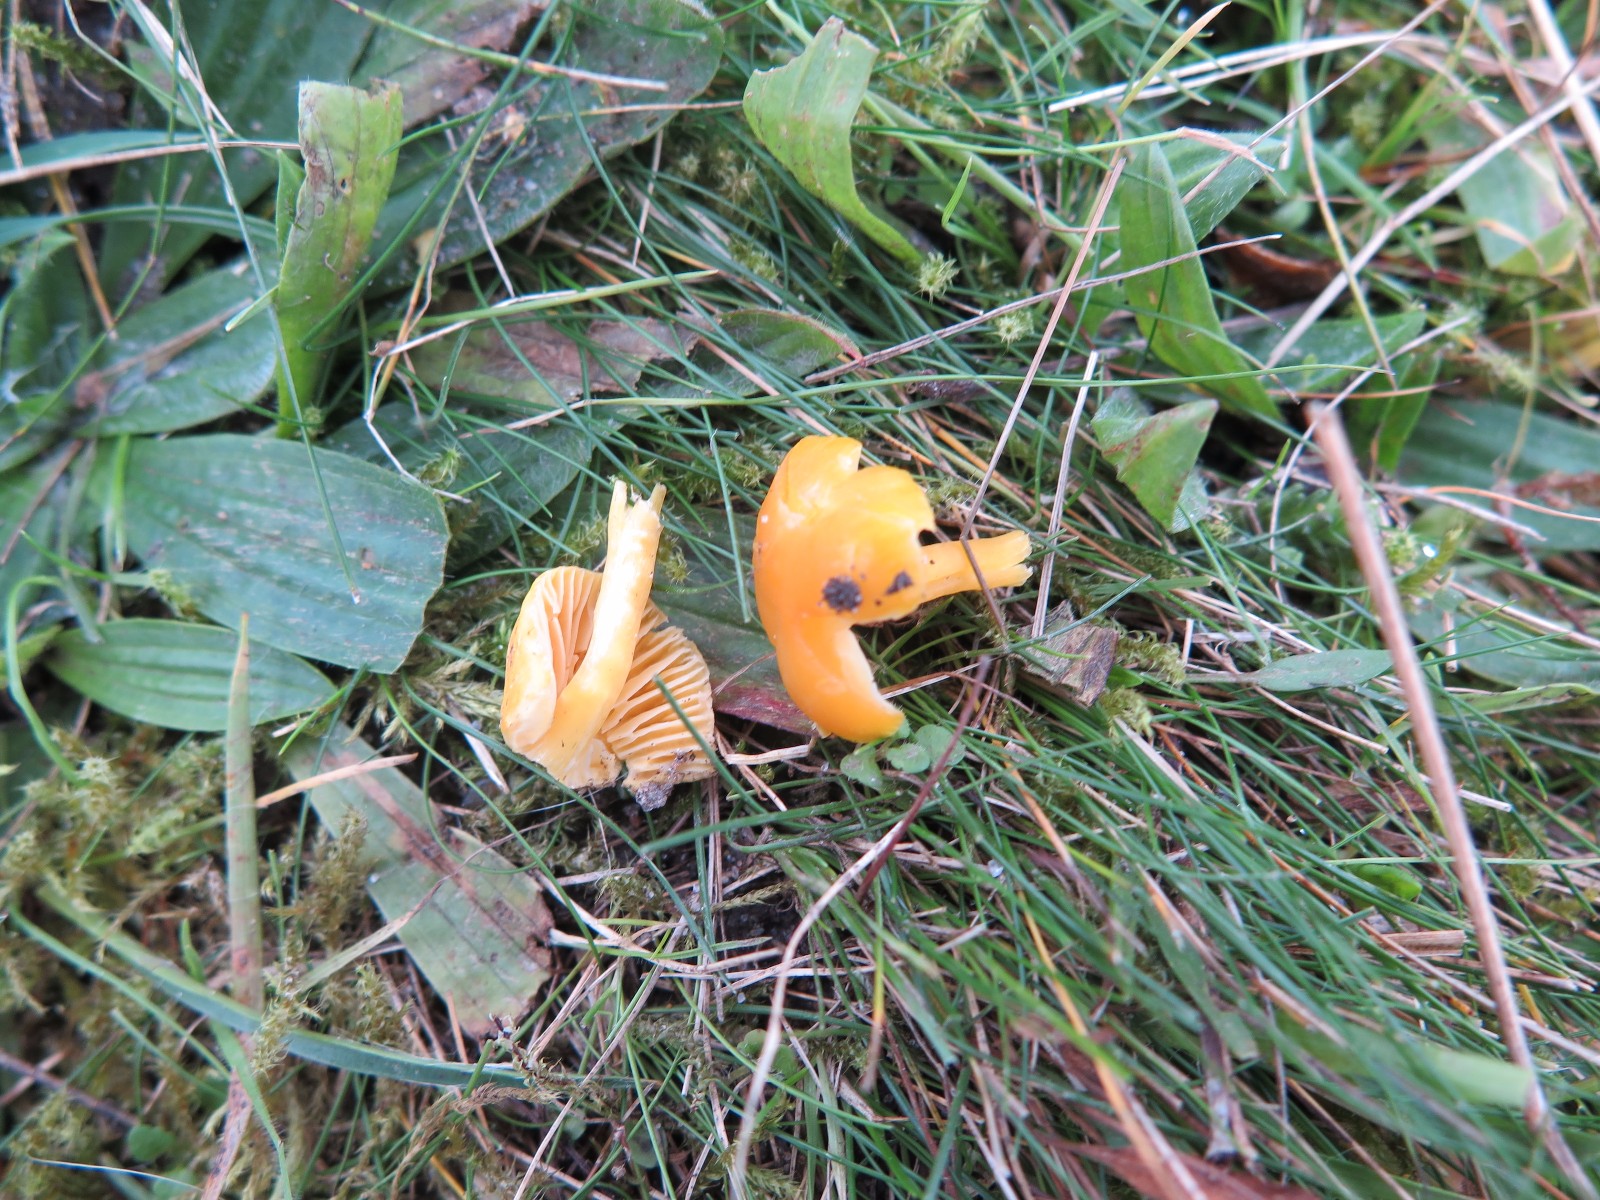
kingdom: Fungi
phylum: Basidiomycota
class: Agaricomycetes
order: Agaricales
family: Hygrophoraceae
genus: Hygrocybe
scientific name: Hygrocybe ceracea
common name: voksgul vokshat
